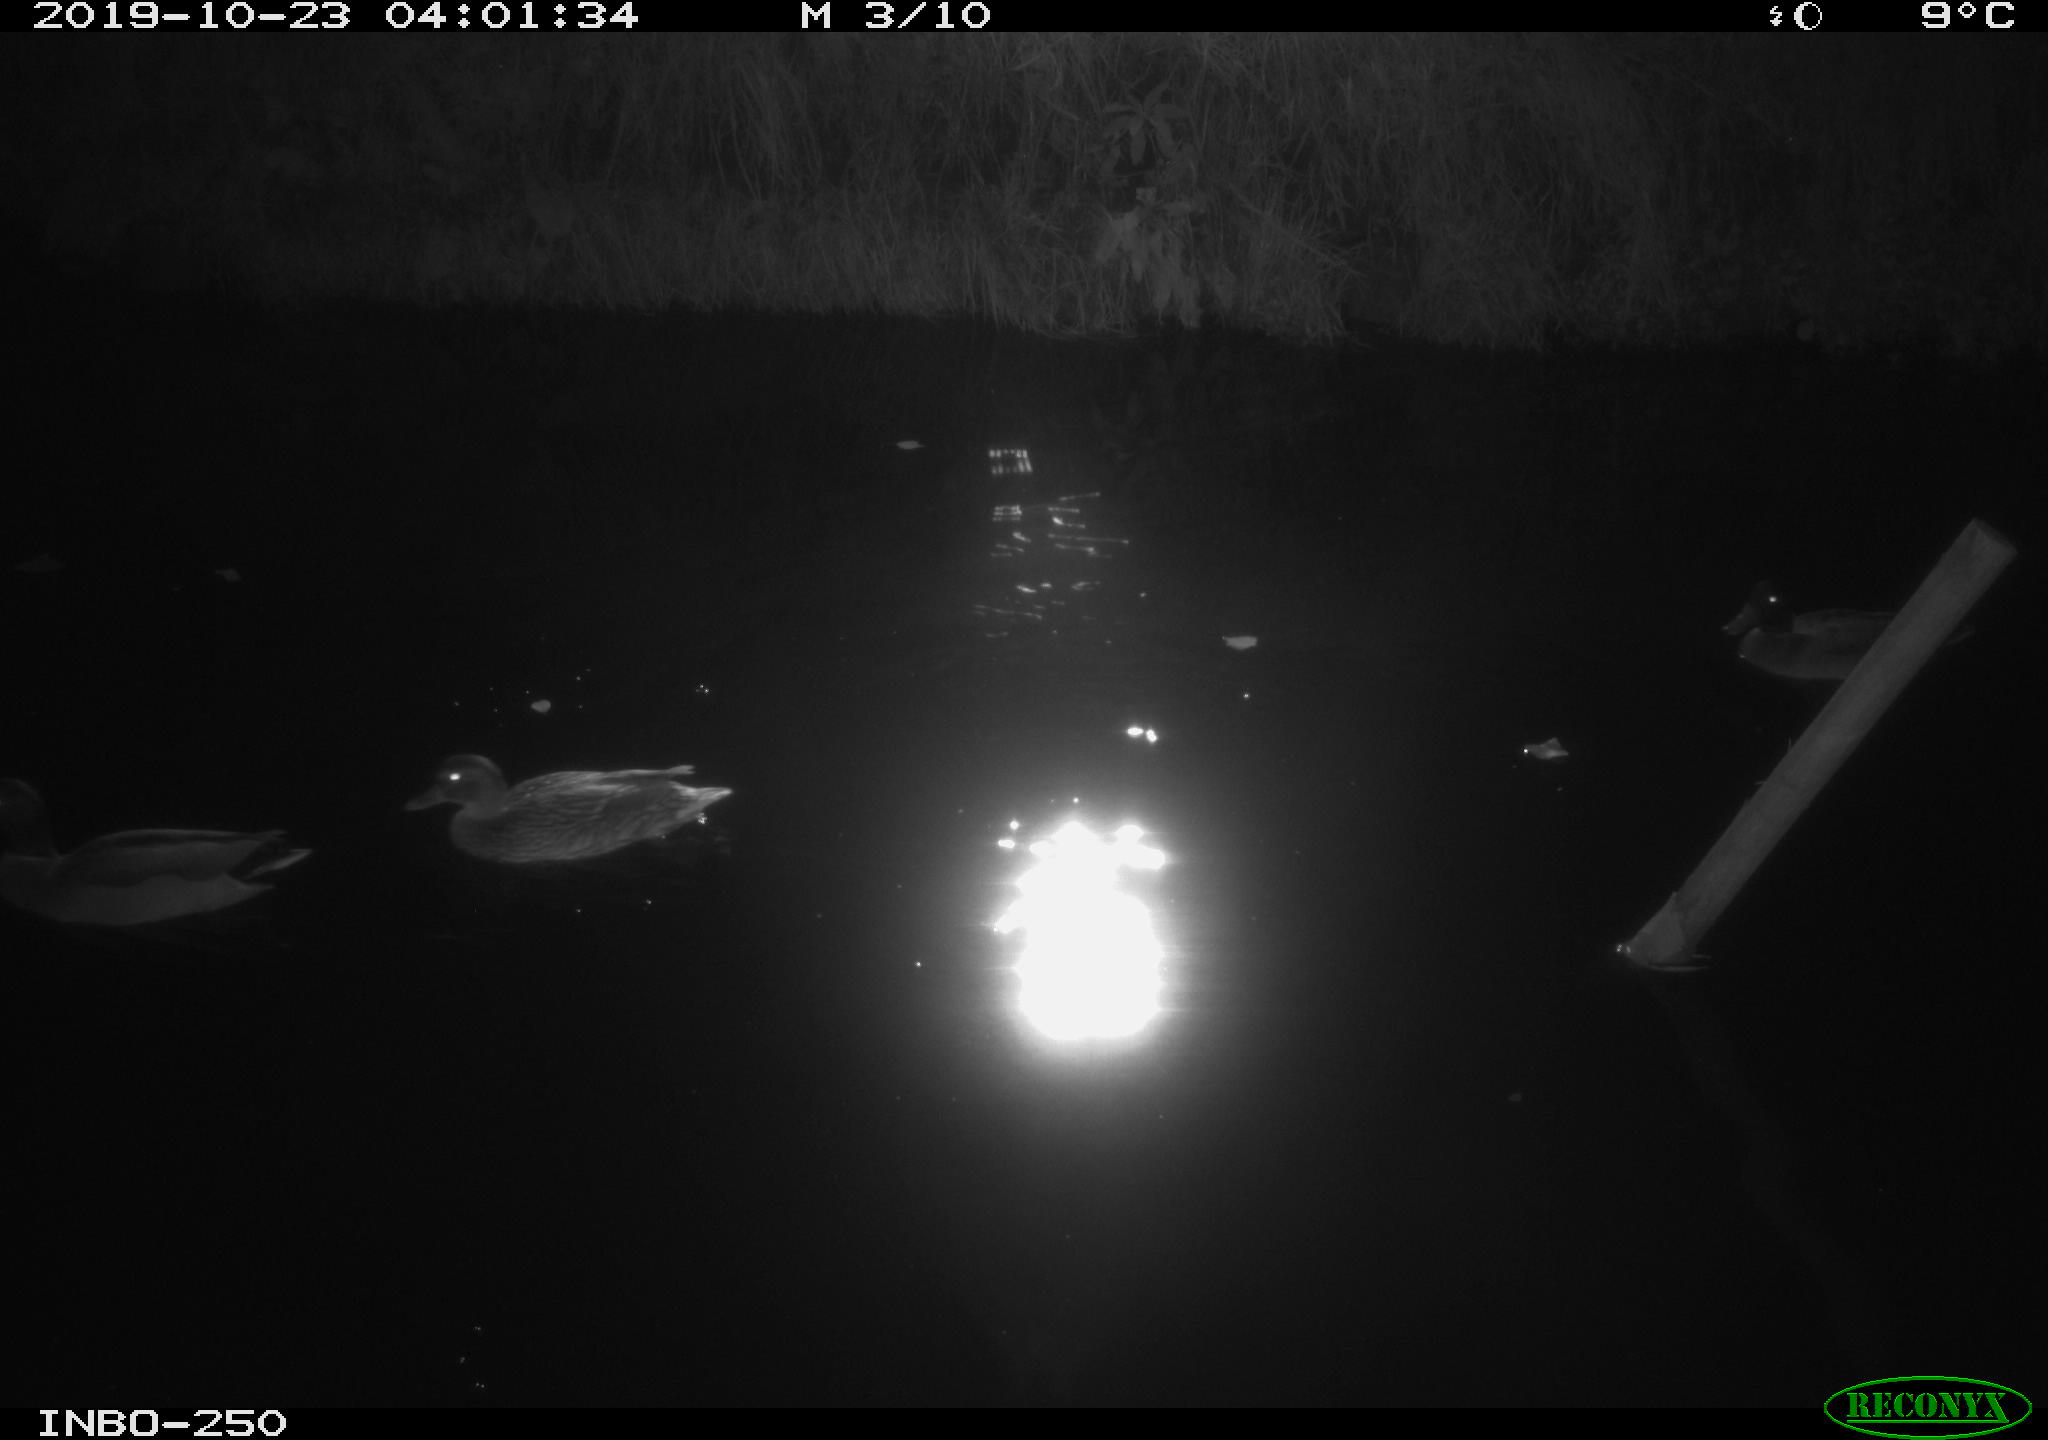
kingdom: Animalia
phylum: Chordata
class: Aves
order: Anseriformes
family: Anatidae
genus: Anas
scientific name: Anas platyrhynchos
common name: Mallard
